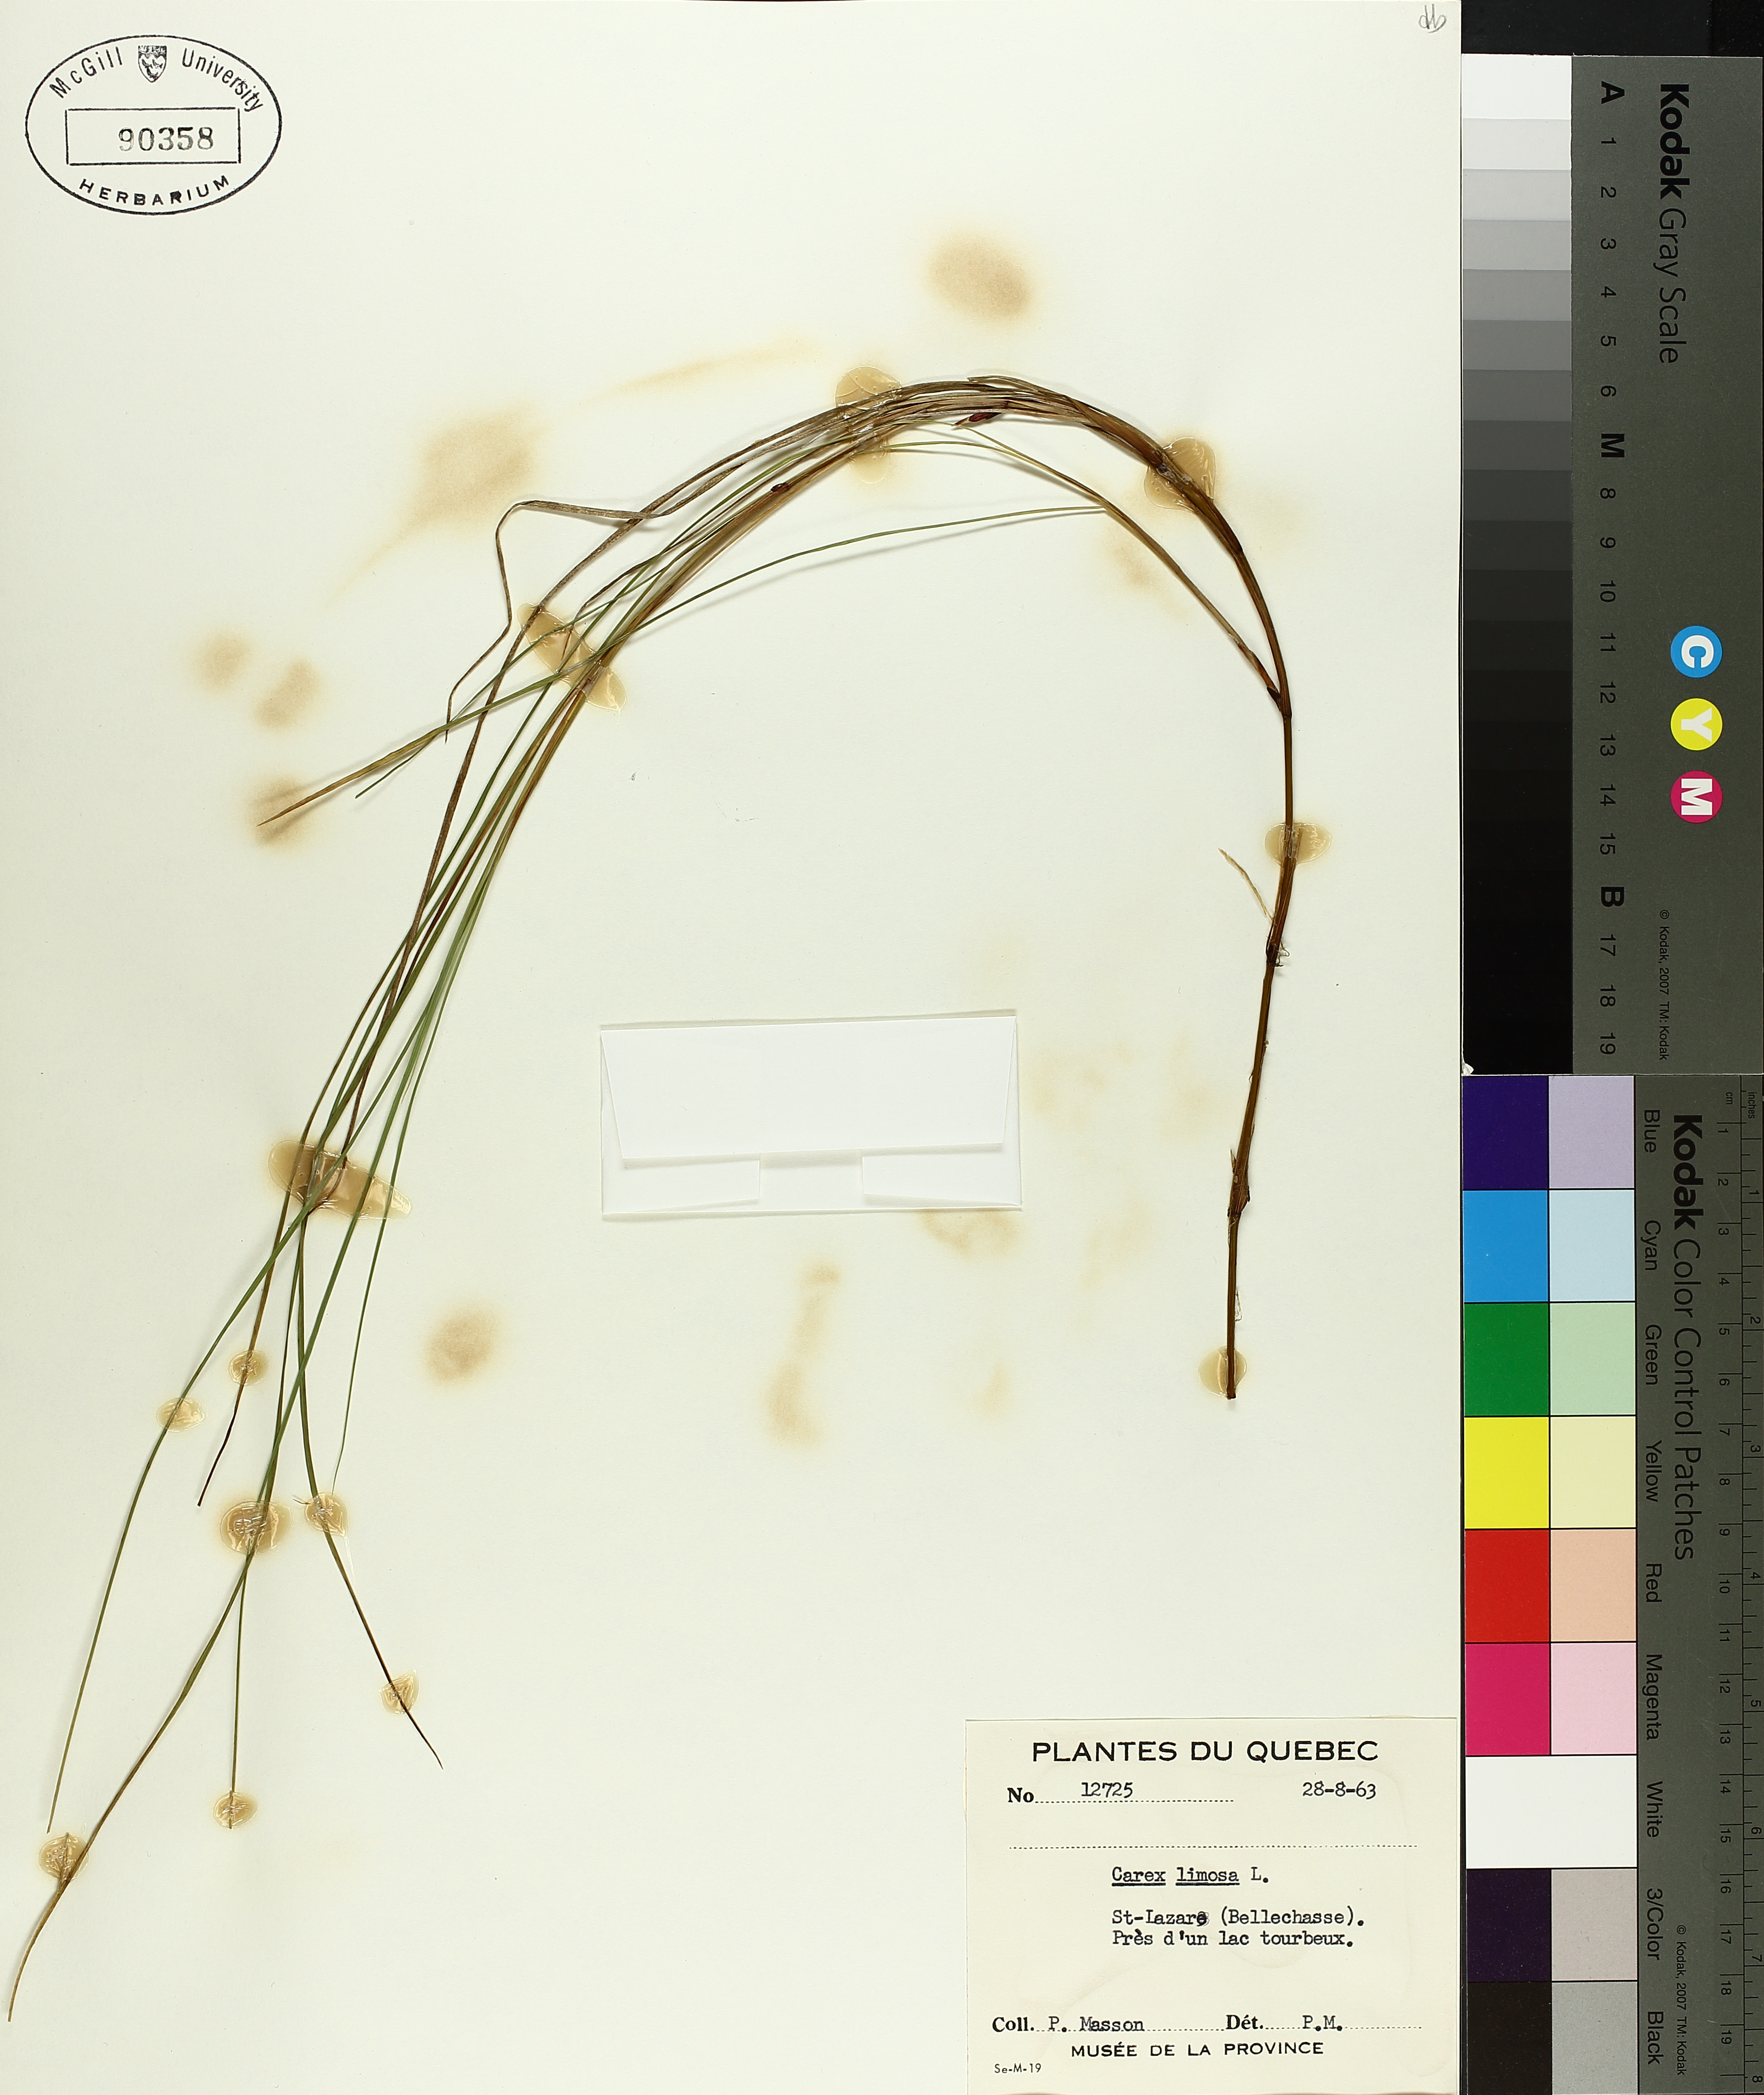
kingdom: Plantae
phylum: Tracheophyta
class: Liliopsida
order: Poales
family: Cyperaceae
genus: Carex
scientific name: Carex limosa
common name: Bog sedge
